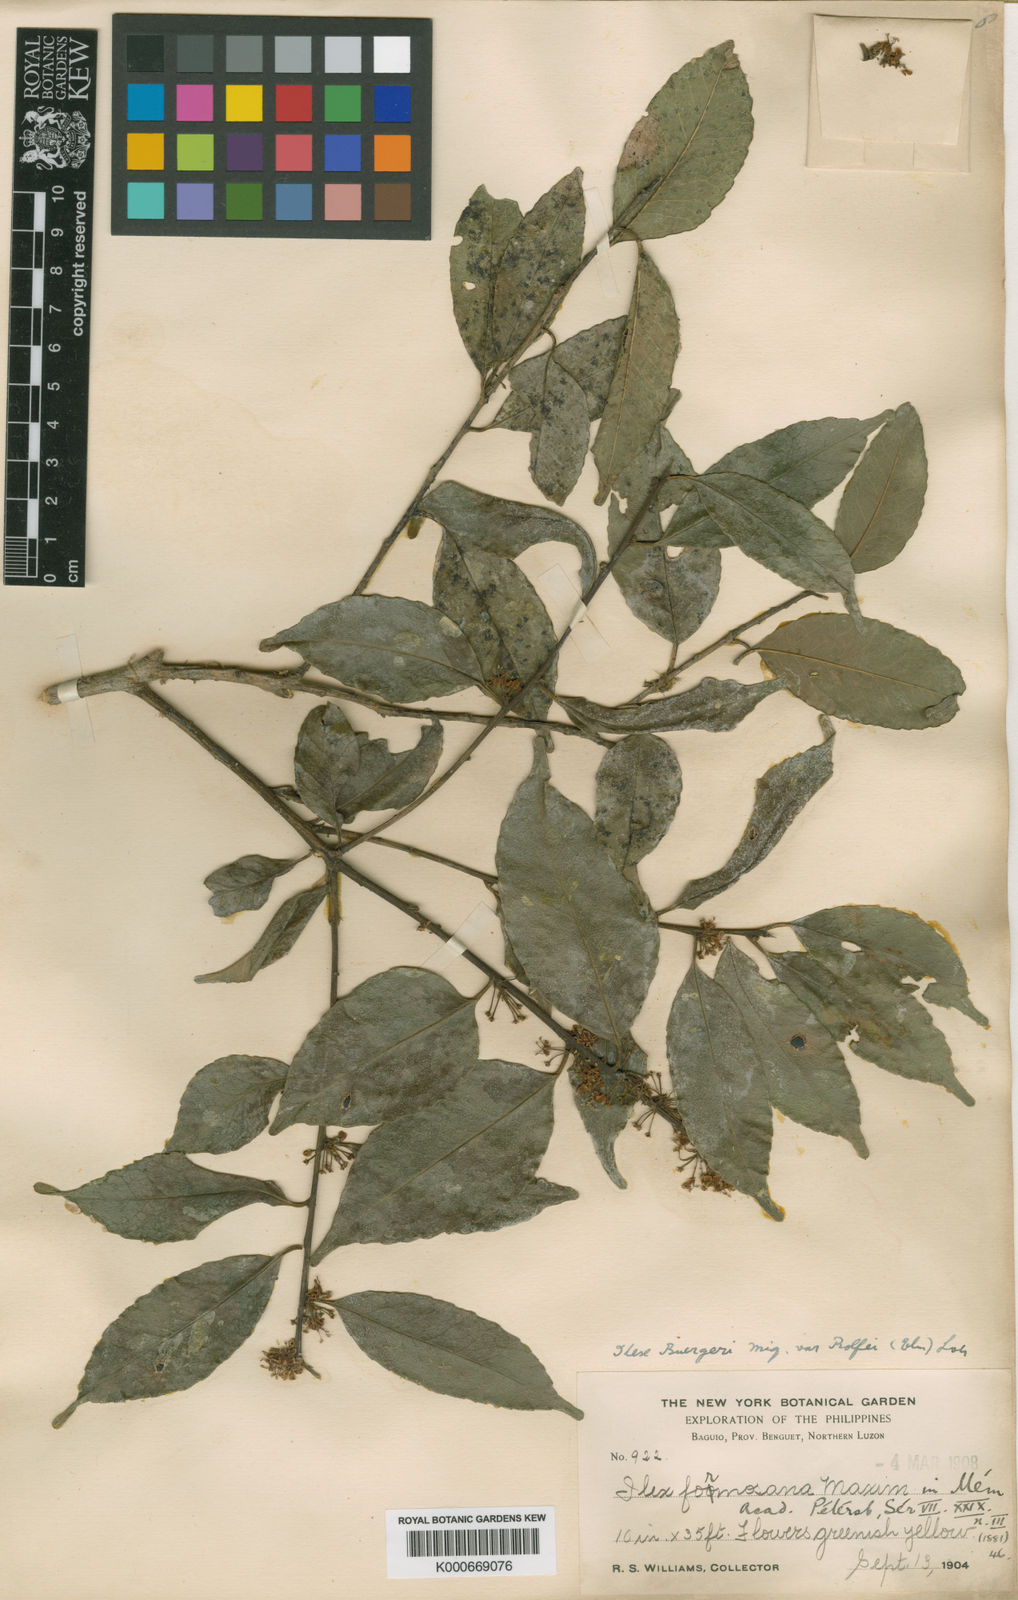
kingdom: Plantae
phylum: Tracheophyta
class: Magnoliopsida
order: Aquifoliales
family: Aquifoliaceae
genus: Ilex
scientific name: Ilex buergeri
